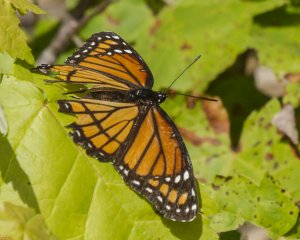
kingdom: Animalia
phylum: Arthropoda
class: Insecta
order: Lepidoptera
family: Nymphalidae
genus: Limenitis
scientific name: Limenitis archippus
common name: Viceroy
